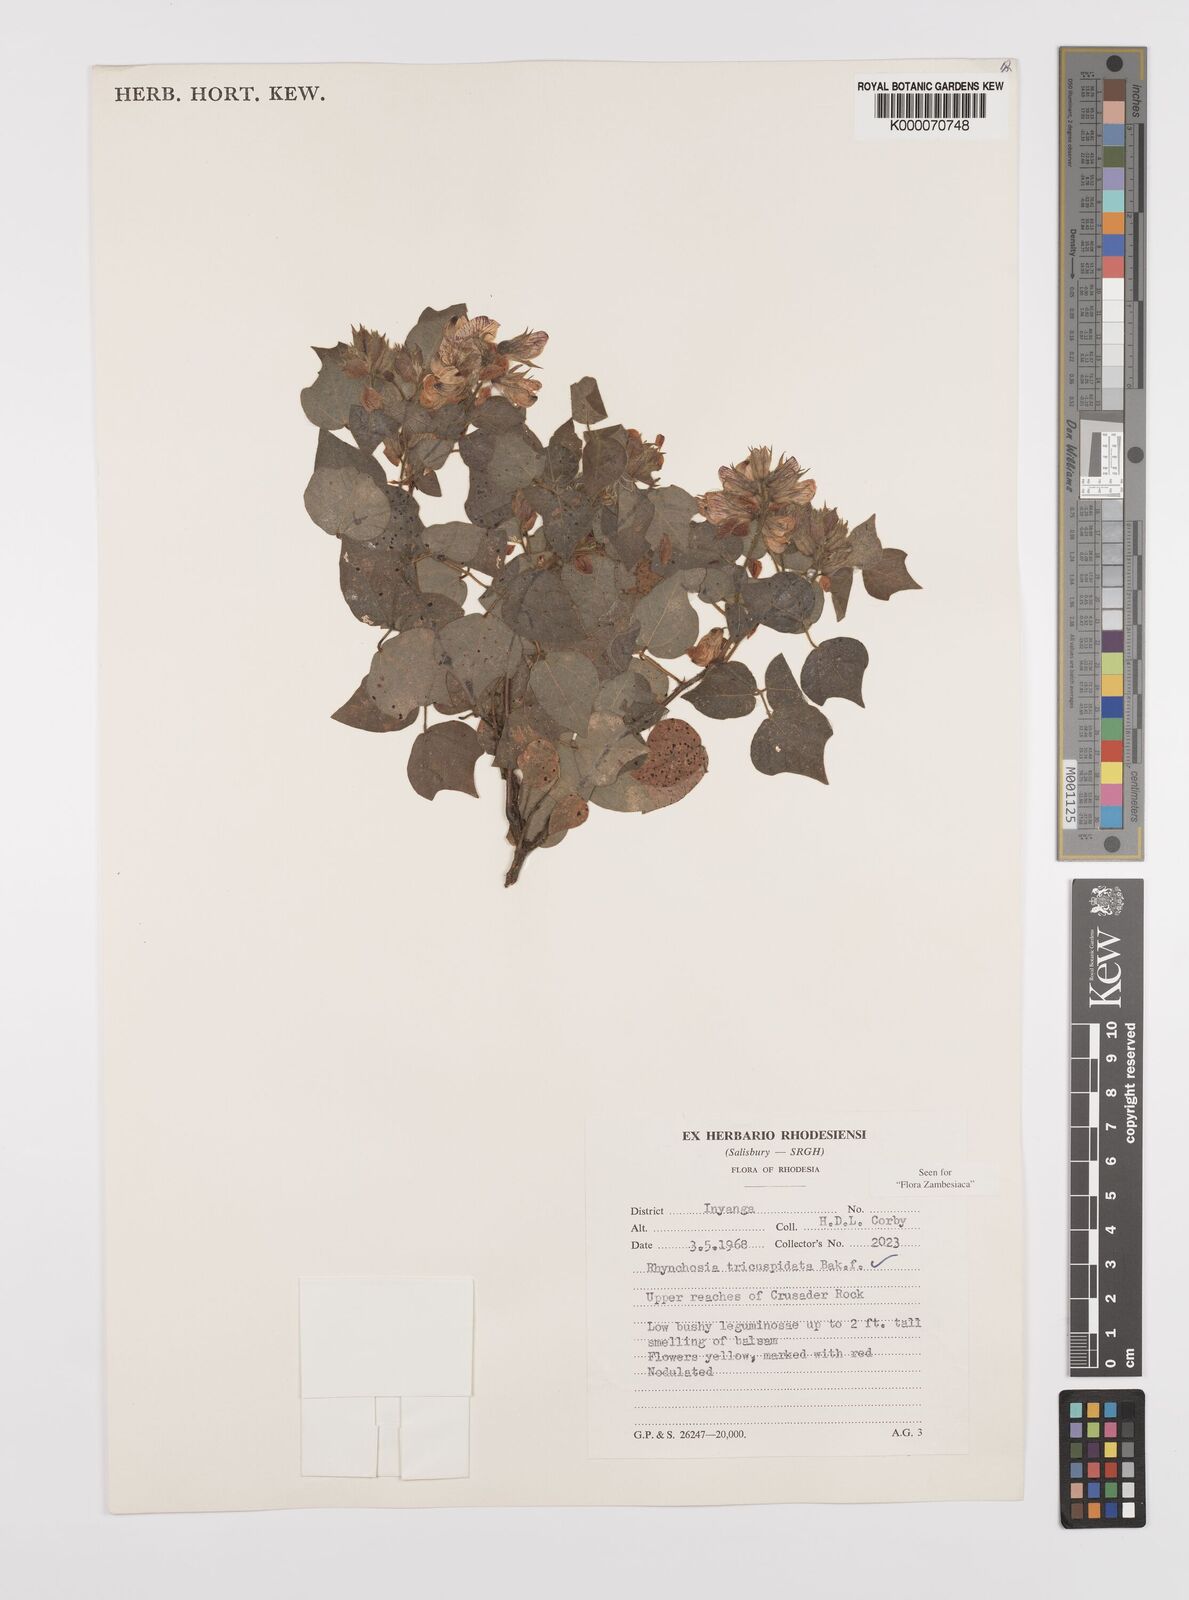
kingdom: Plantae
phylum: Tracheophyta
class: Magnoliopsida
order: Fabales
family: Fabaceae
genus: Rhynchosia
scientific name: Rhynchosia tricuspidata
